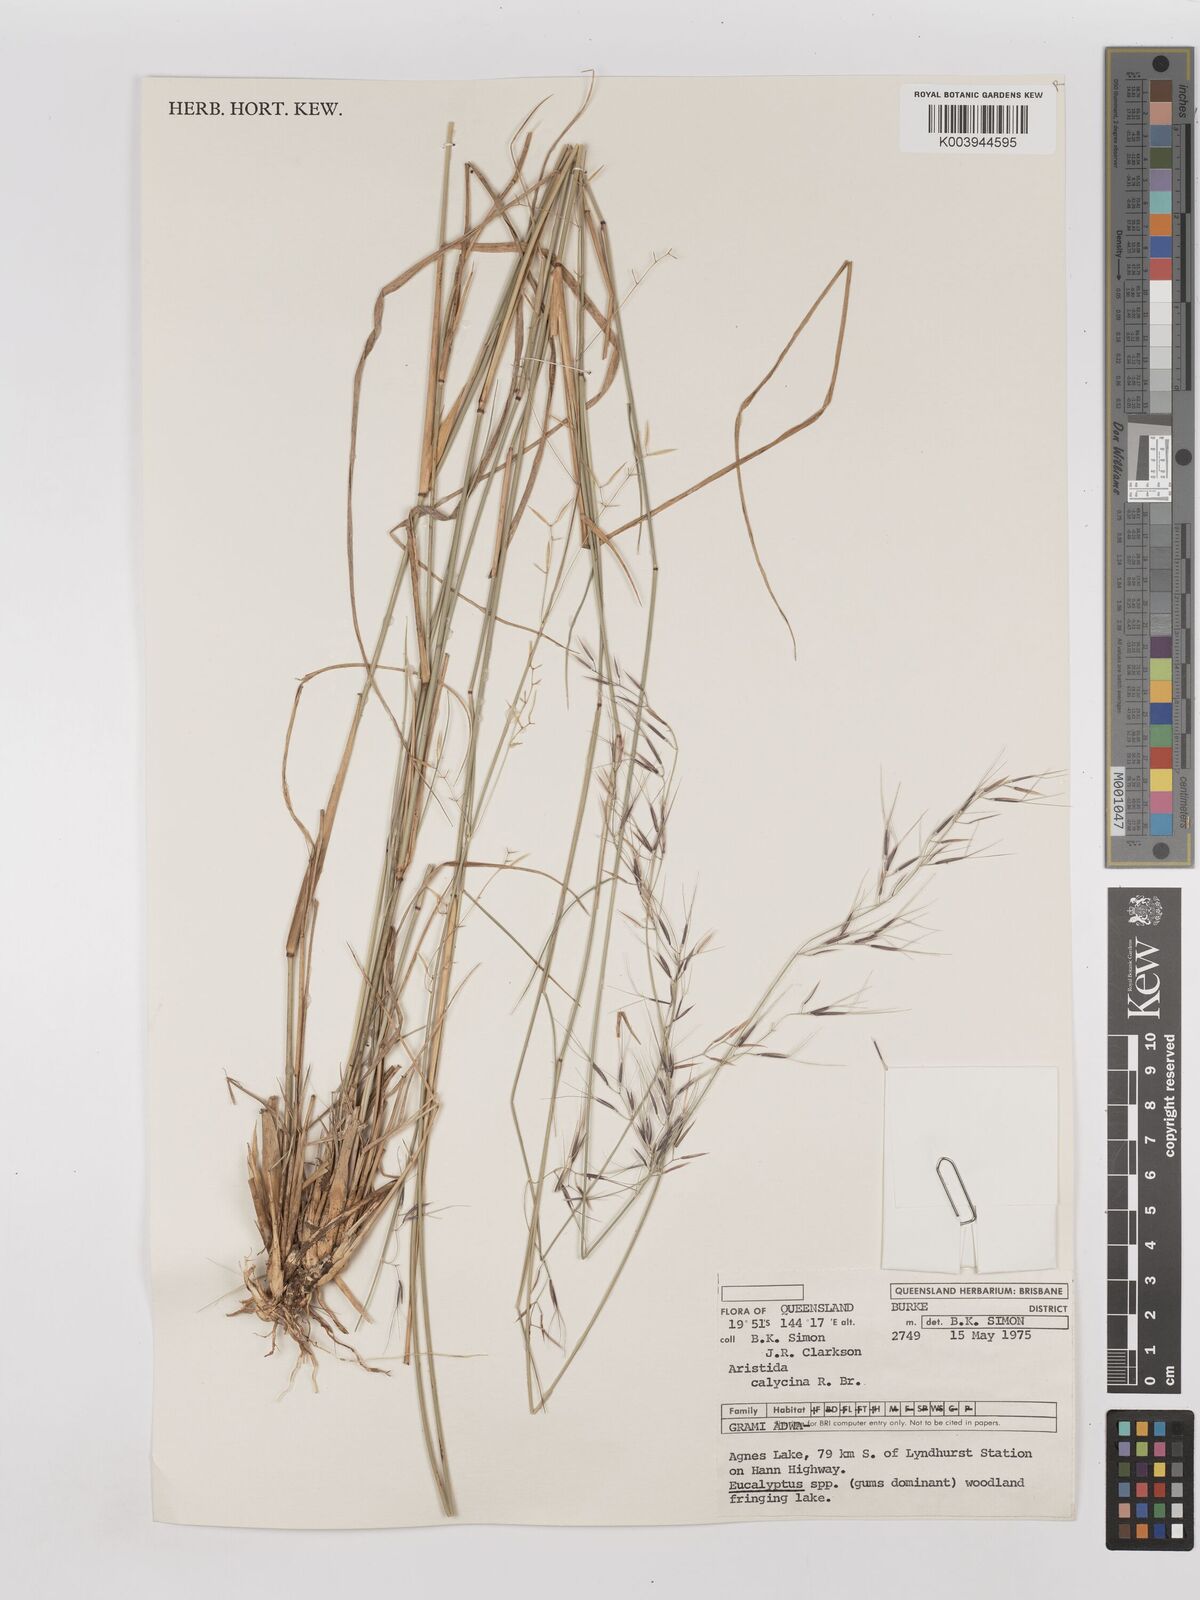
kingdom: Plantae
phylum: Tracheophyta
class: Liliopsida
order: Poales
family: Poaceae
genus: Aristida
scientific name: Aristida calycina
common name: Dark wire grass
